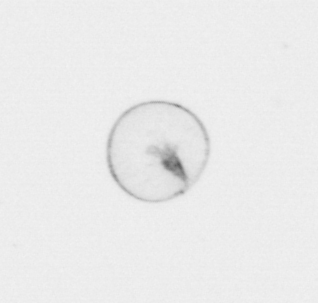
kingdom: Chromista
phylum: Myzozoa
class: Dinophyceae
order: Noctilucales
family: Noctilucaceae
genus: Noctiluca
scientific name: Noctiluca scintillans
